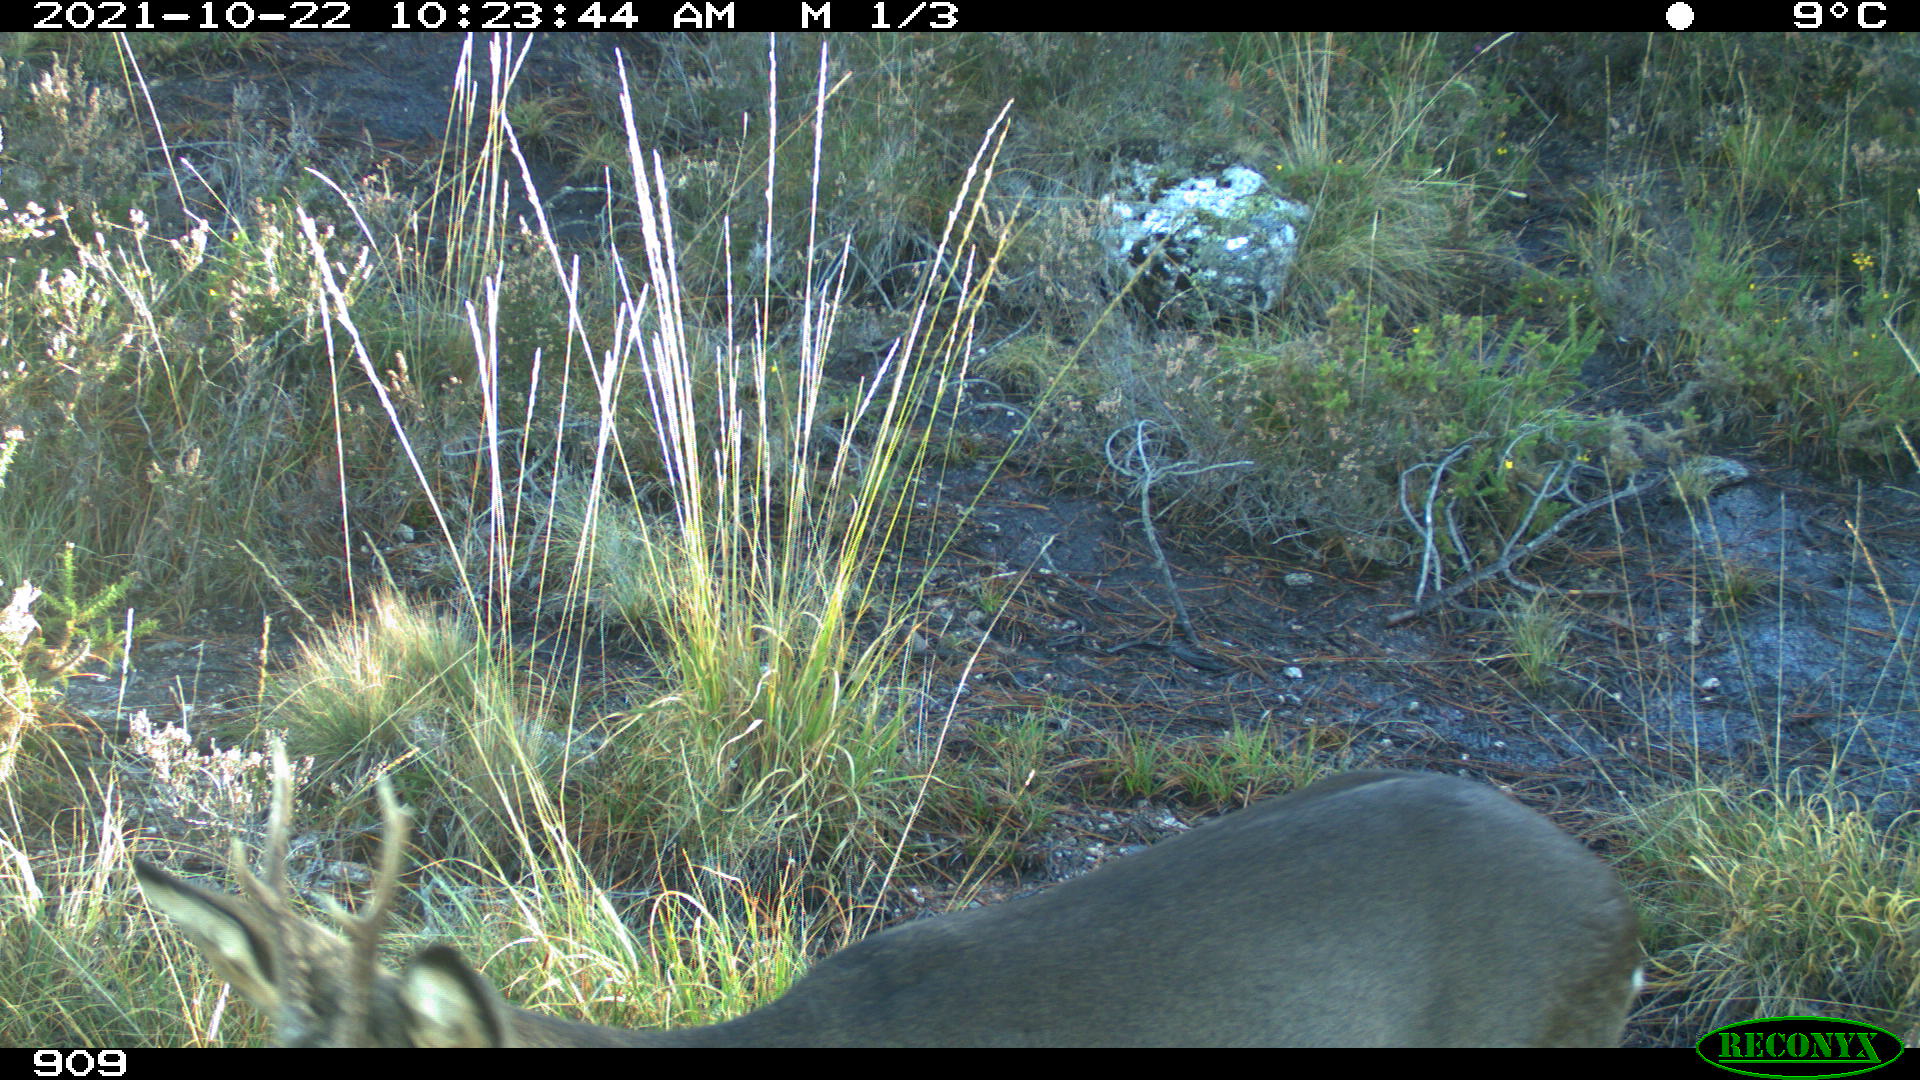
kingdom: Animalia
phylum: Chordata
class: Mammalia
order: Artiodactyla
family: Cervidae
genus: Capreolus
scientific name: Capreolus capreolus
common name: Western roe deer
